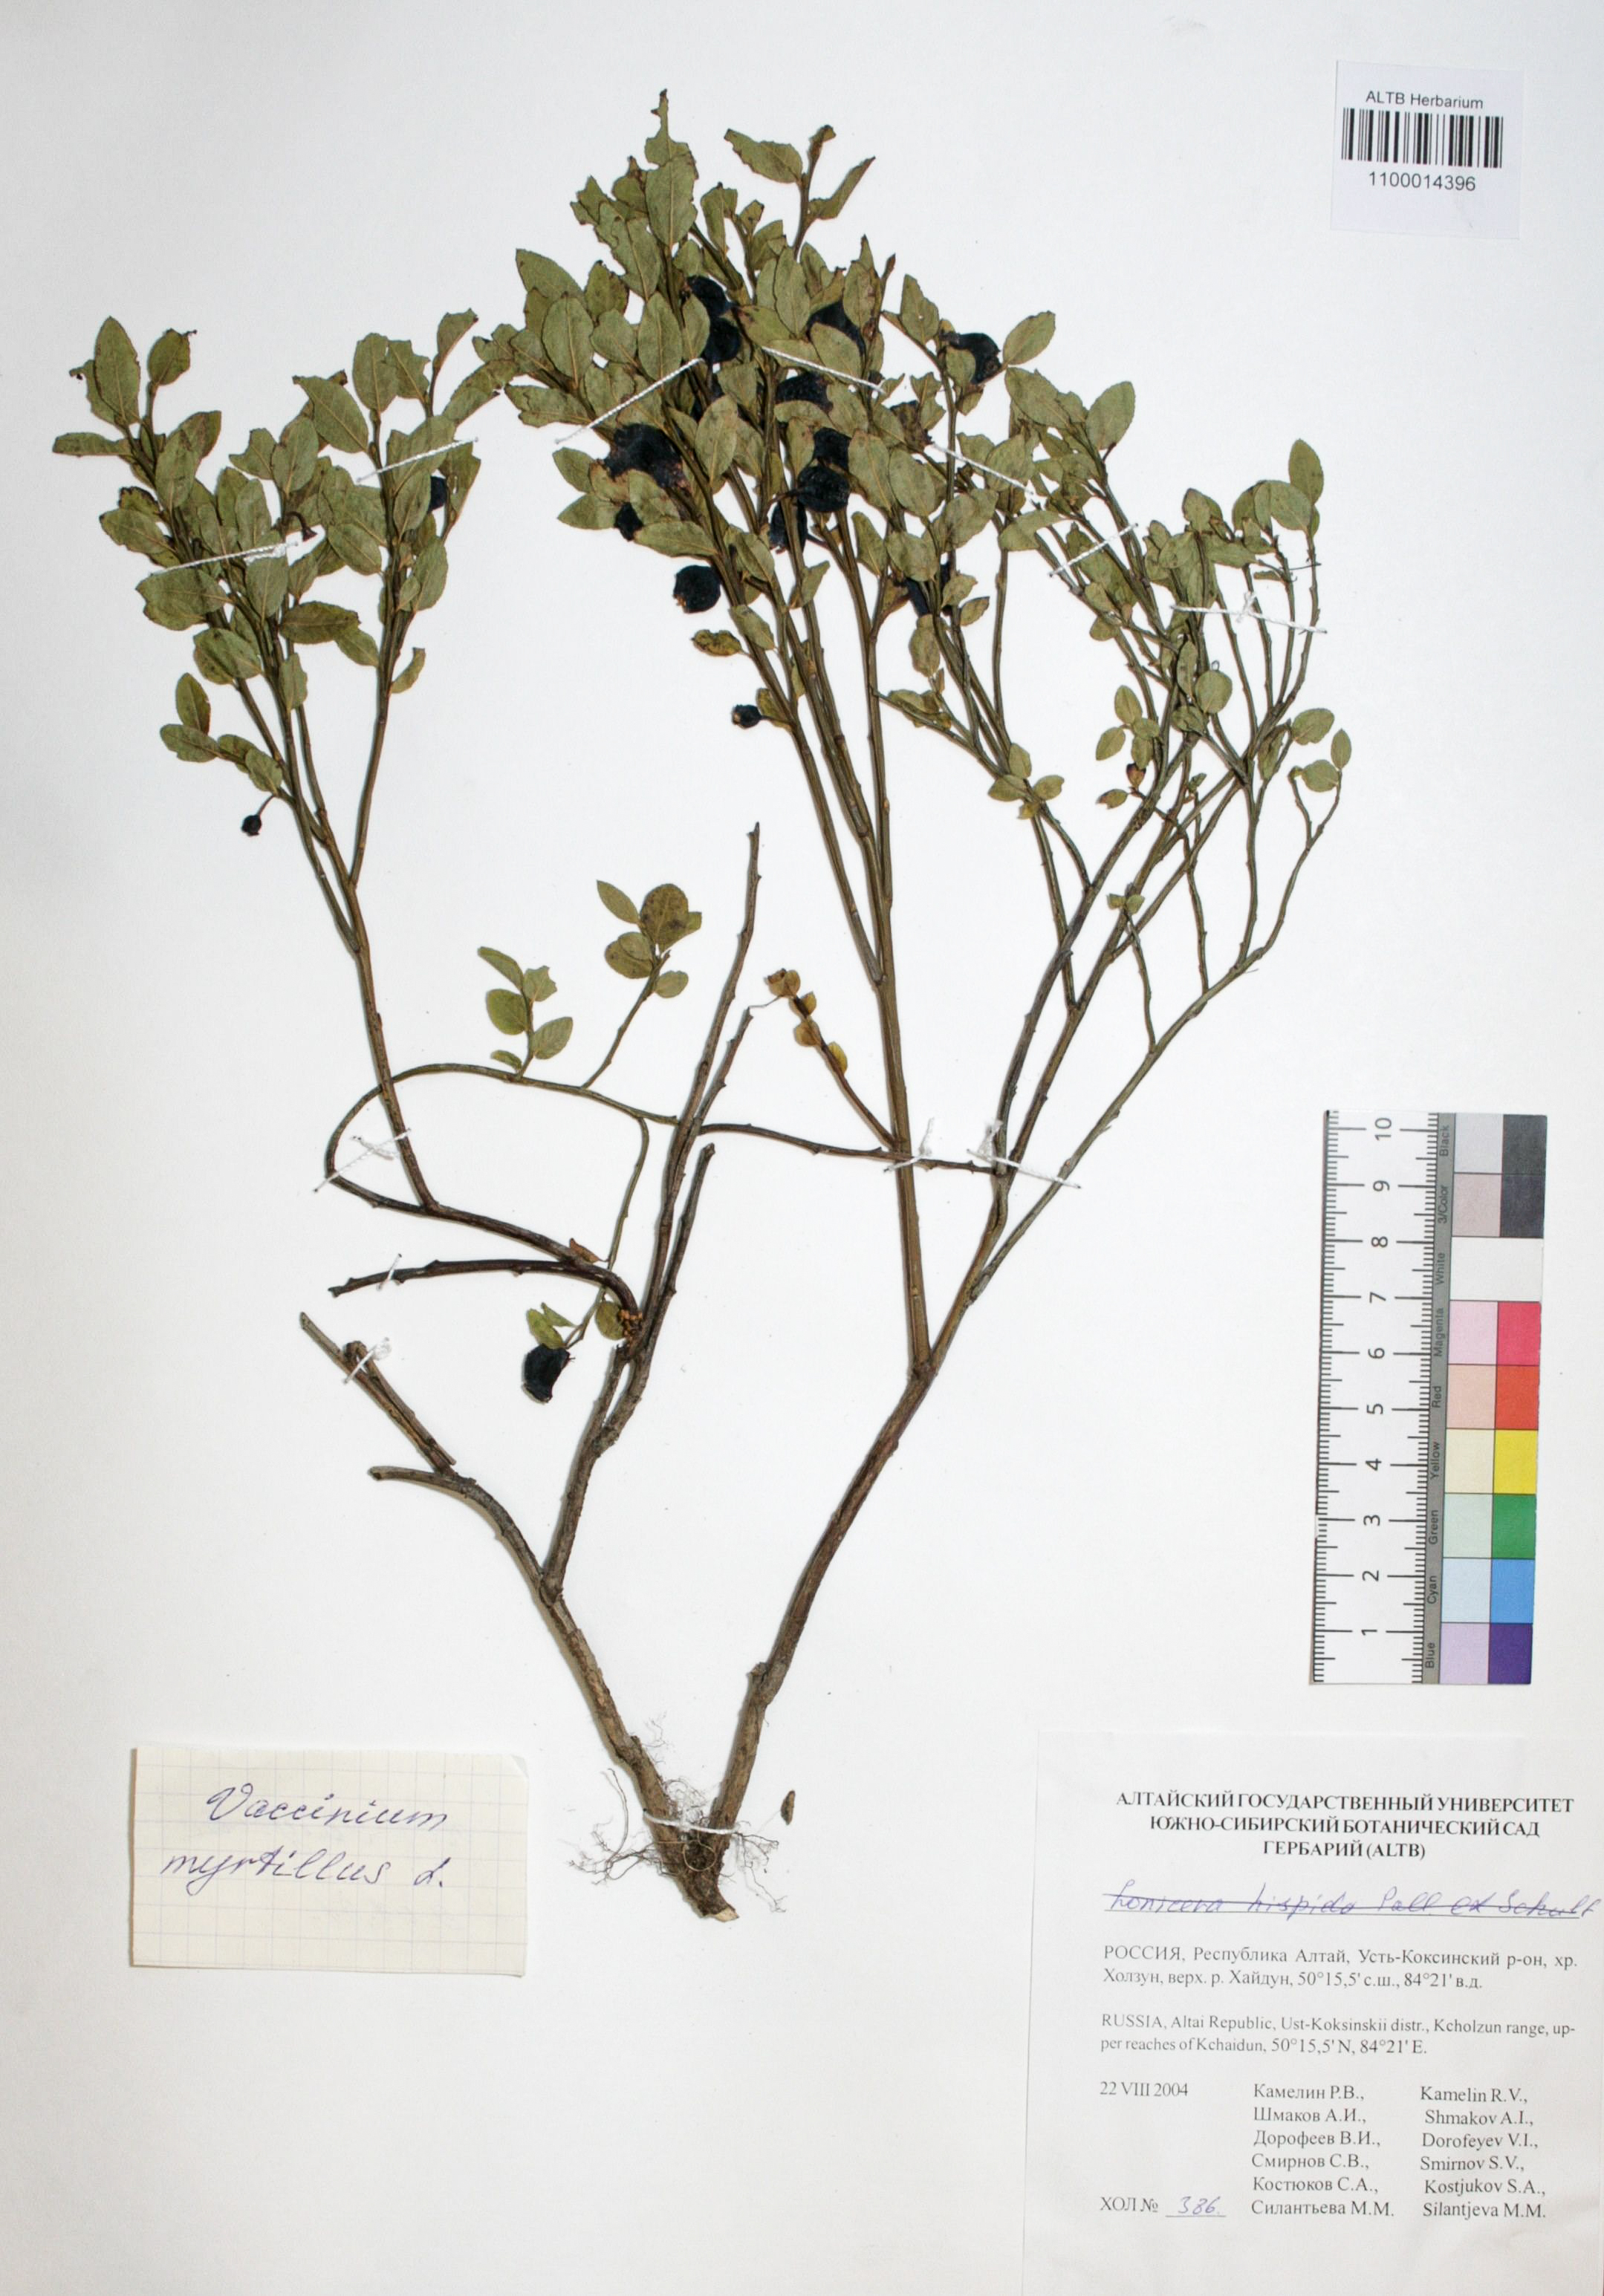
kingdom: Plantae
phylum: Tracheophyta
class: Magnoliopsida
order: Ericales
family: Ericaceae
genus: Vaccinium
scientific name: Vaccinium myrtillus
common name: Bilberry
